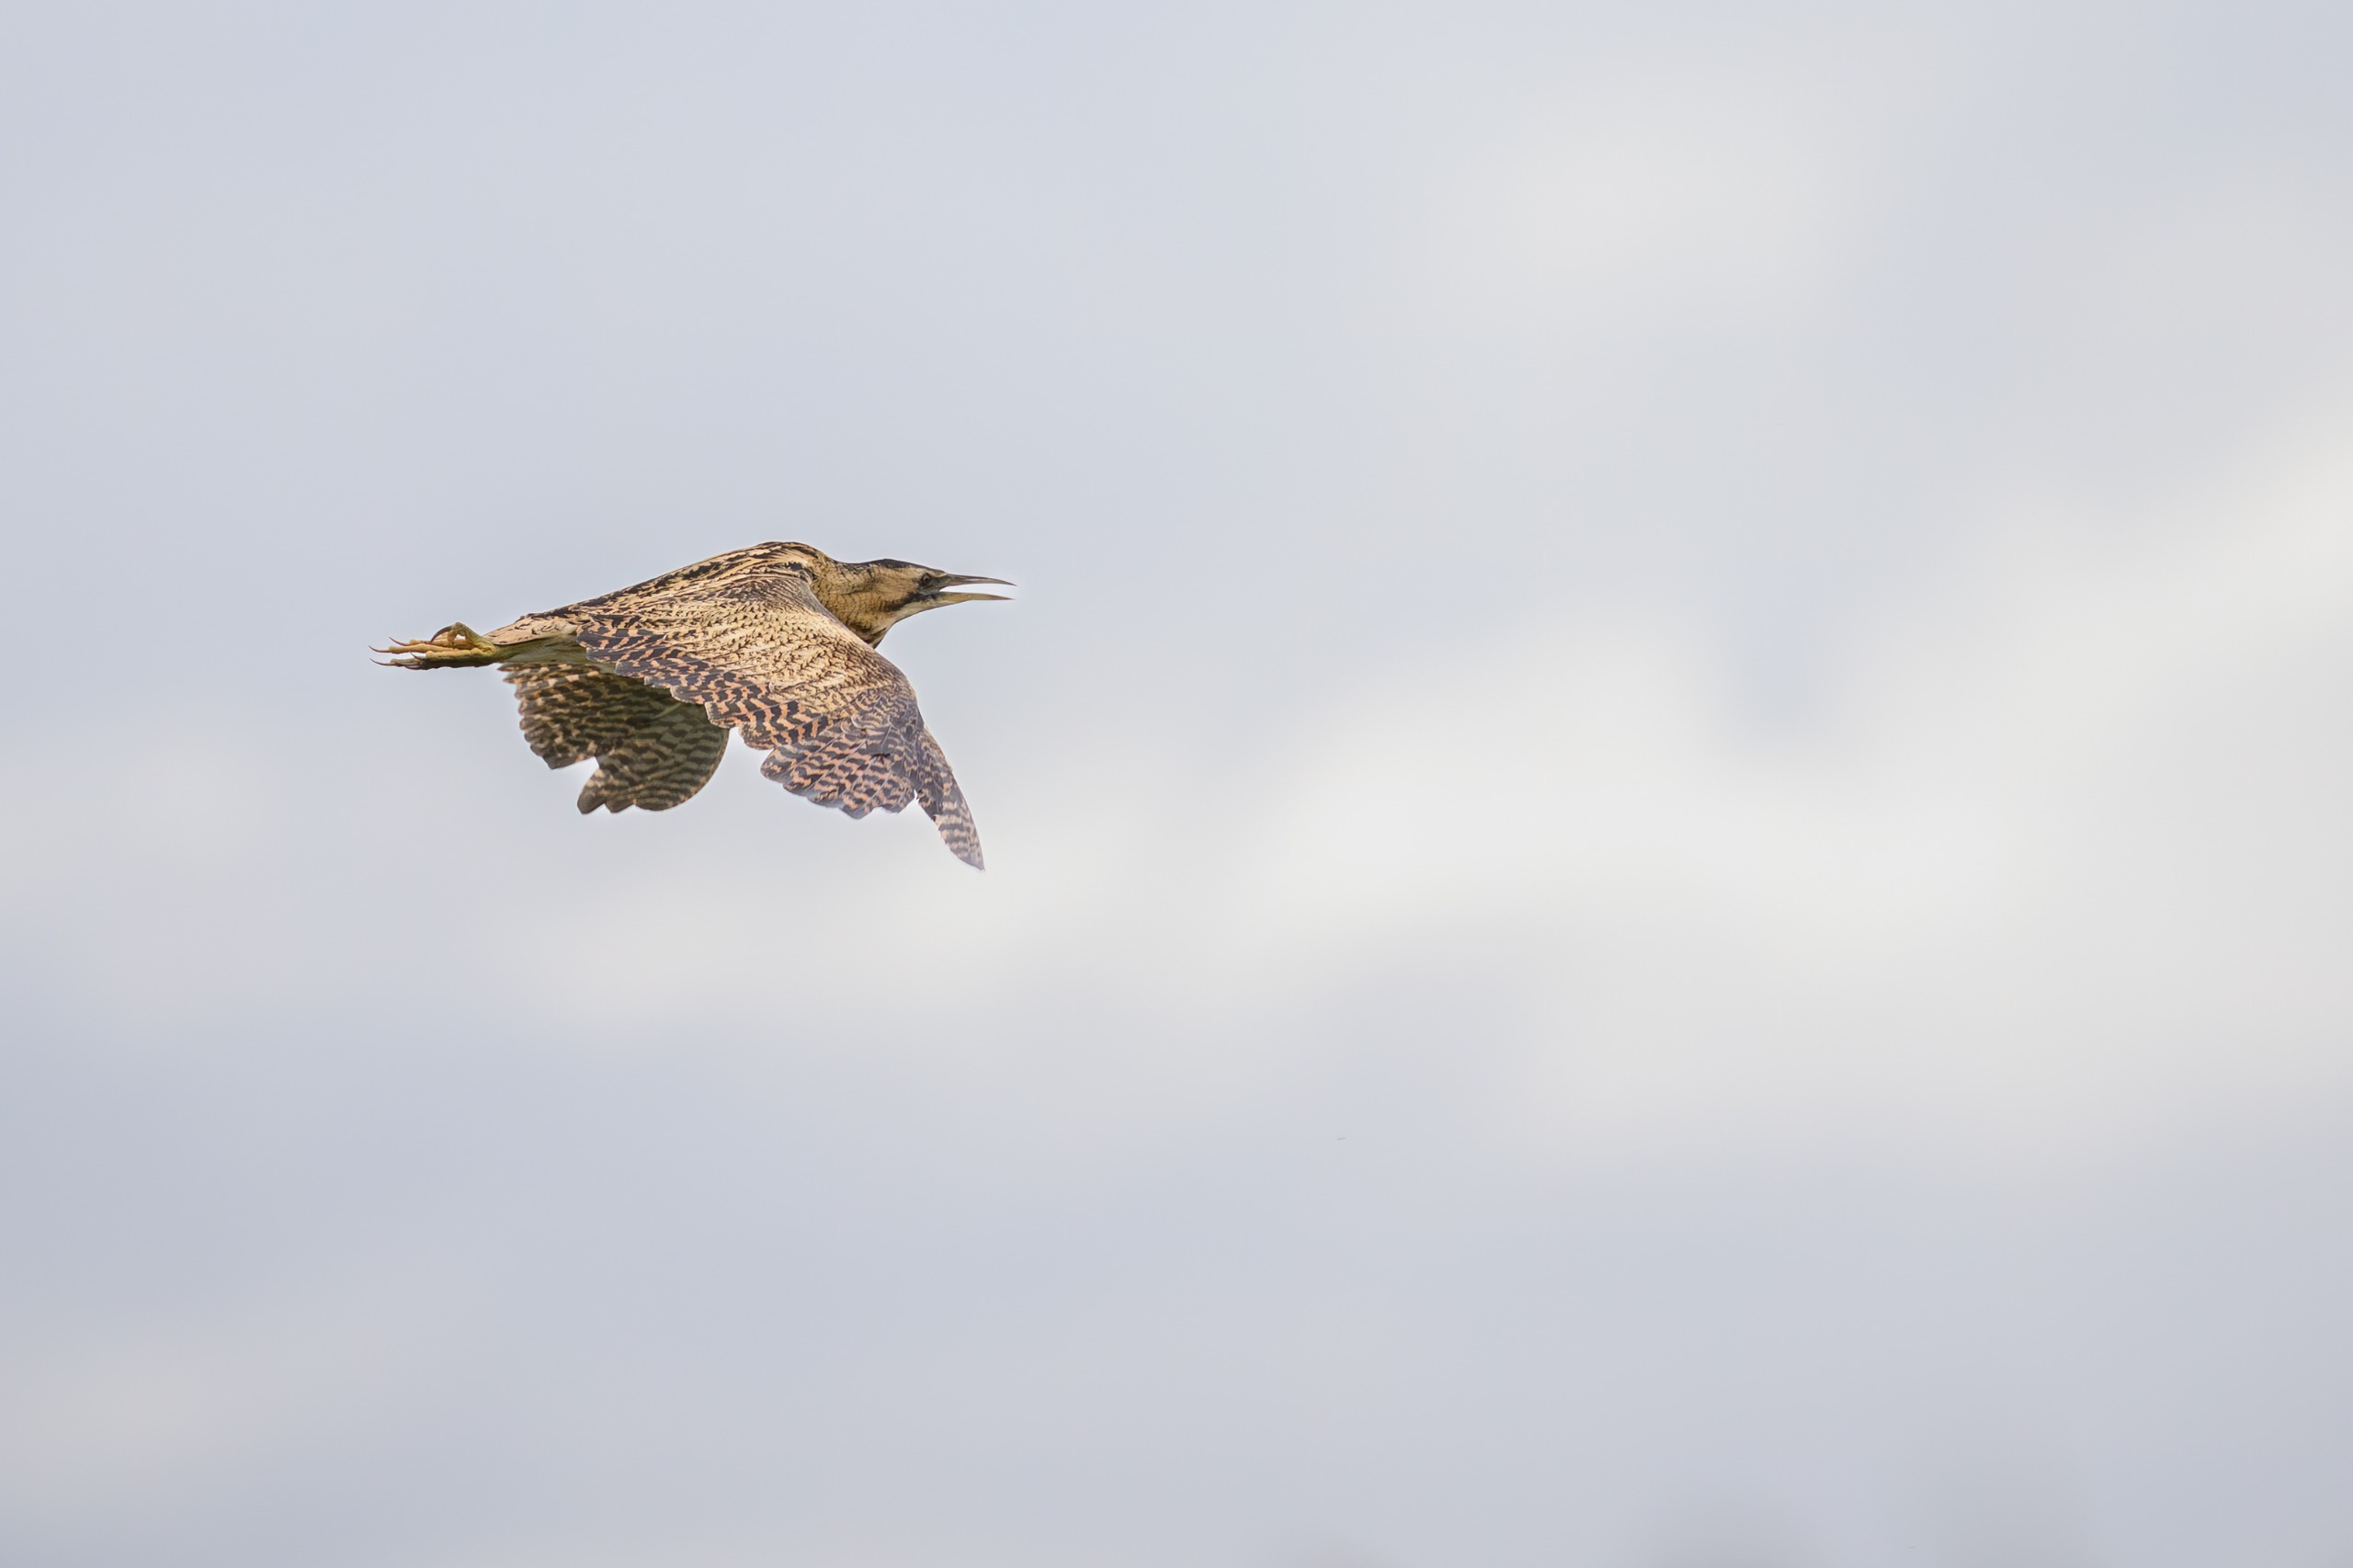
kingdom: Animalia
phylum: Chordata
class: Aves
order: Pelecaniformes
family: Ardeidae
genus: Botaurus
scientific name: Botaurus stellaris
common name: Rørdrum
